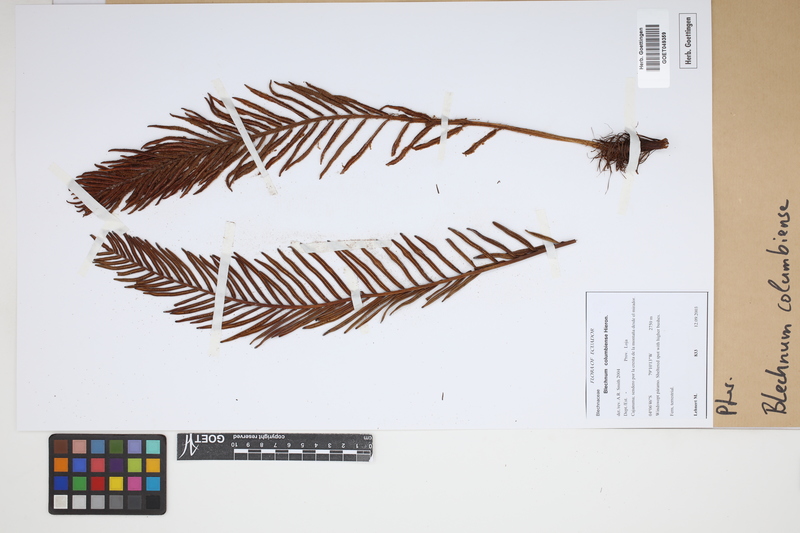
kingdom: Plantae
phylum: Tracheophyta
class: Polypodiopsida
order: Polypodiales
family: Blechnaceae
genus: Lomariocycas
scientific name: Lomariocycas columbiensis
